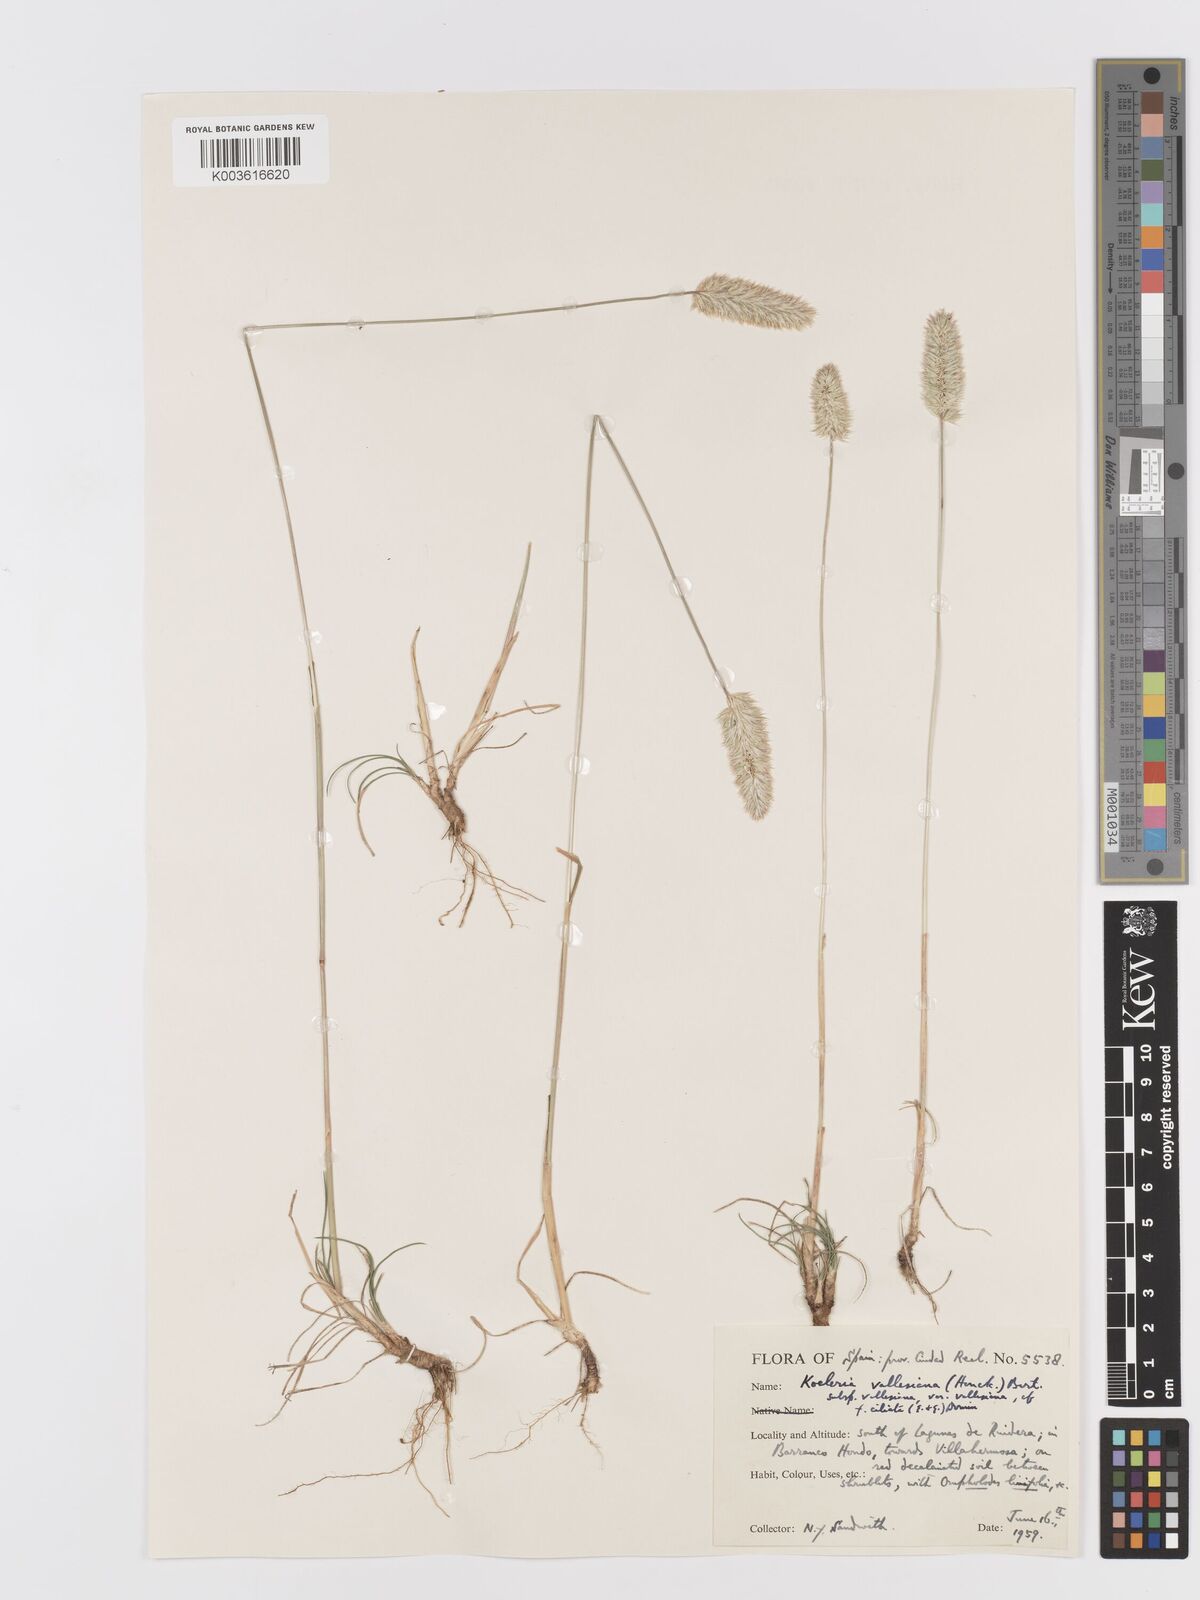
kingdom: Plantae
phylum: Tracheophyta
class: Liliopsida
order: Poales
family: Poaceae
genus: Koeleria
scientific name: Koeleria vallesiana
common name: Somerset hair-grass
